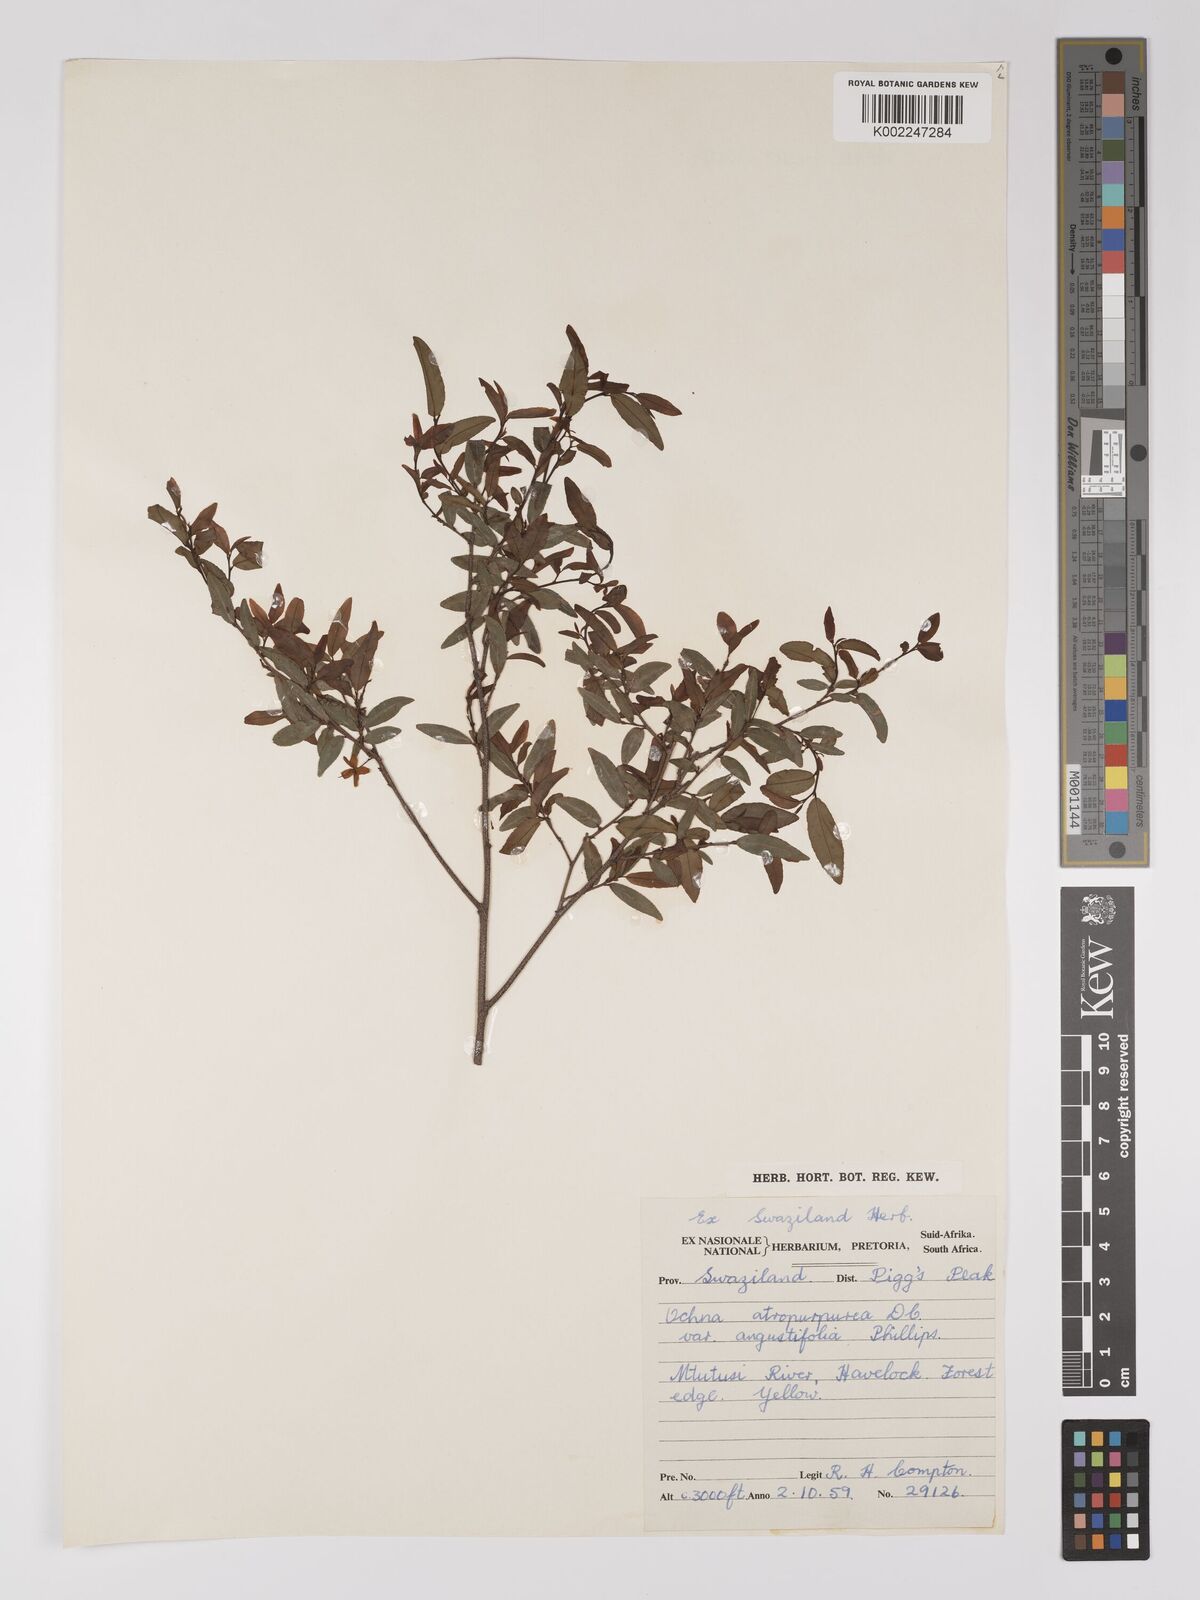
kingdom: Plantae
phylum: Tracheophyta
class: Magnoliopsida
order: Malpighiales
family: Ochnaceae
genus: Ochna
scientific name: Ochna atropurpurea
